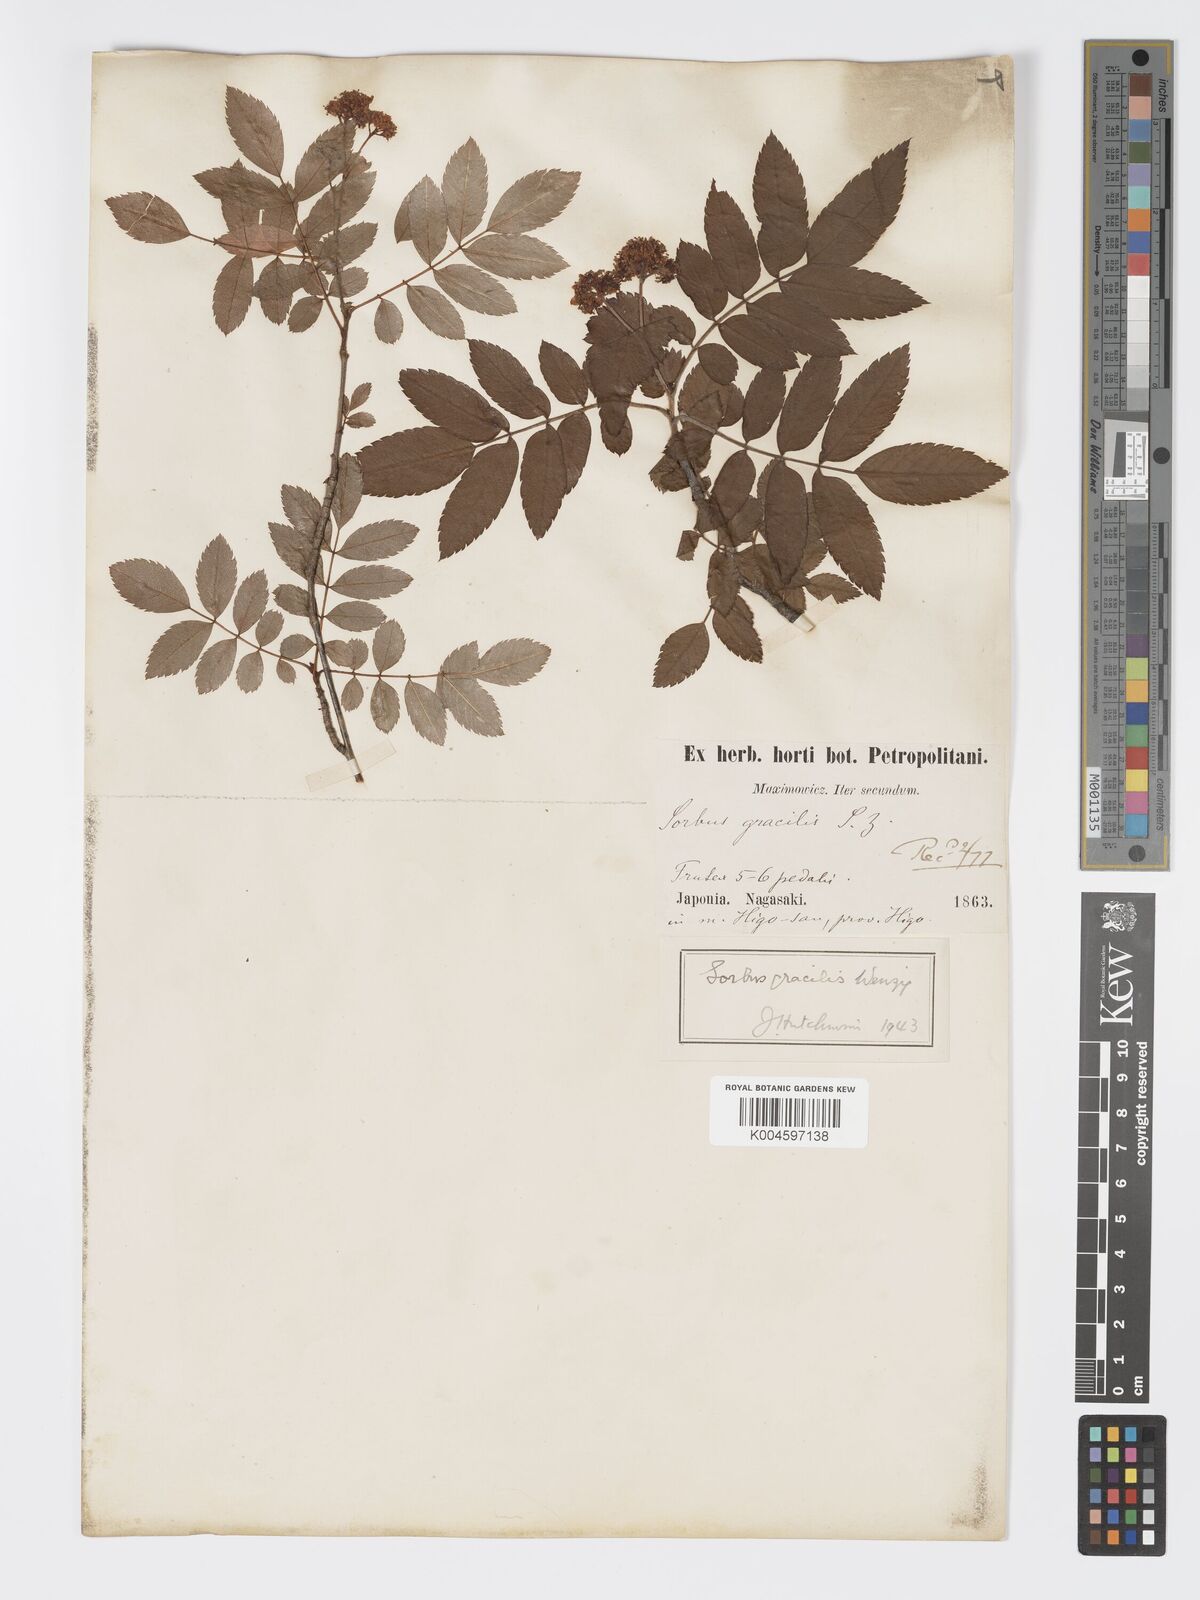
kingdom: Plantae
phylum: Tracheophyta
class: Magnoliopsida
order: Rosales
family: Rosaceae
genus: Sorbus
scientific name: Sorbus gracilis
